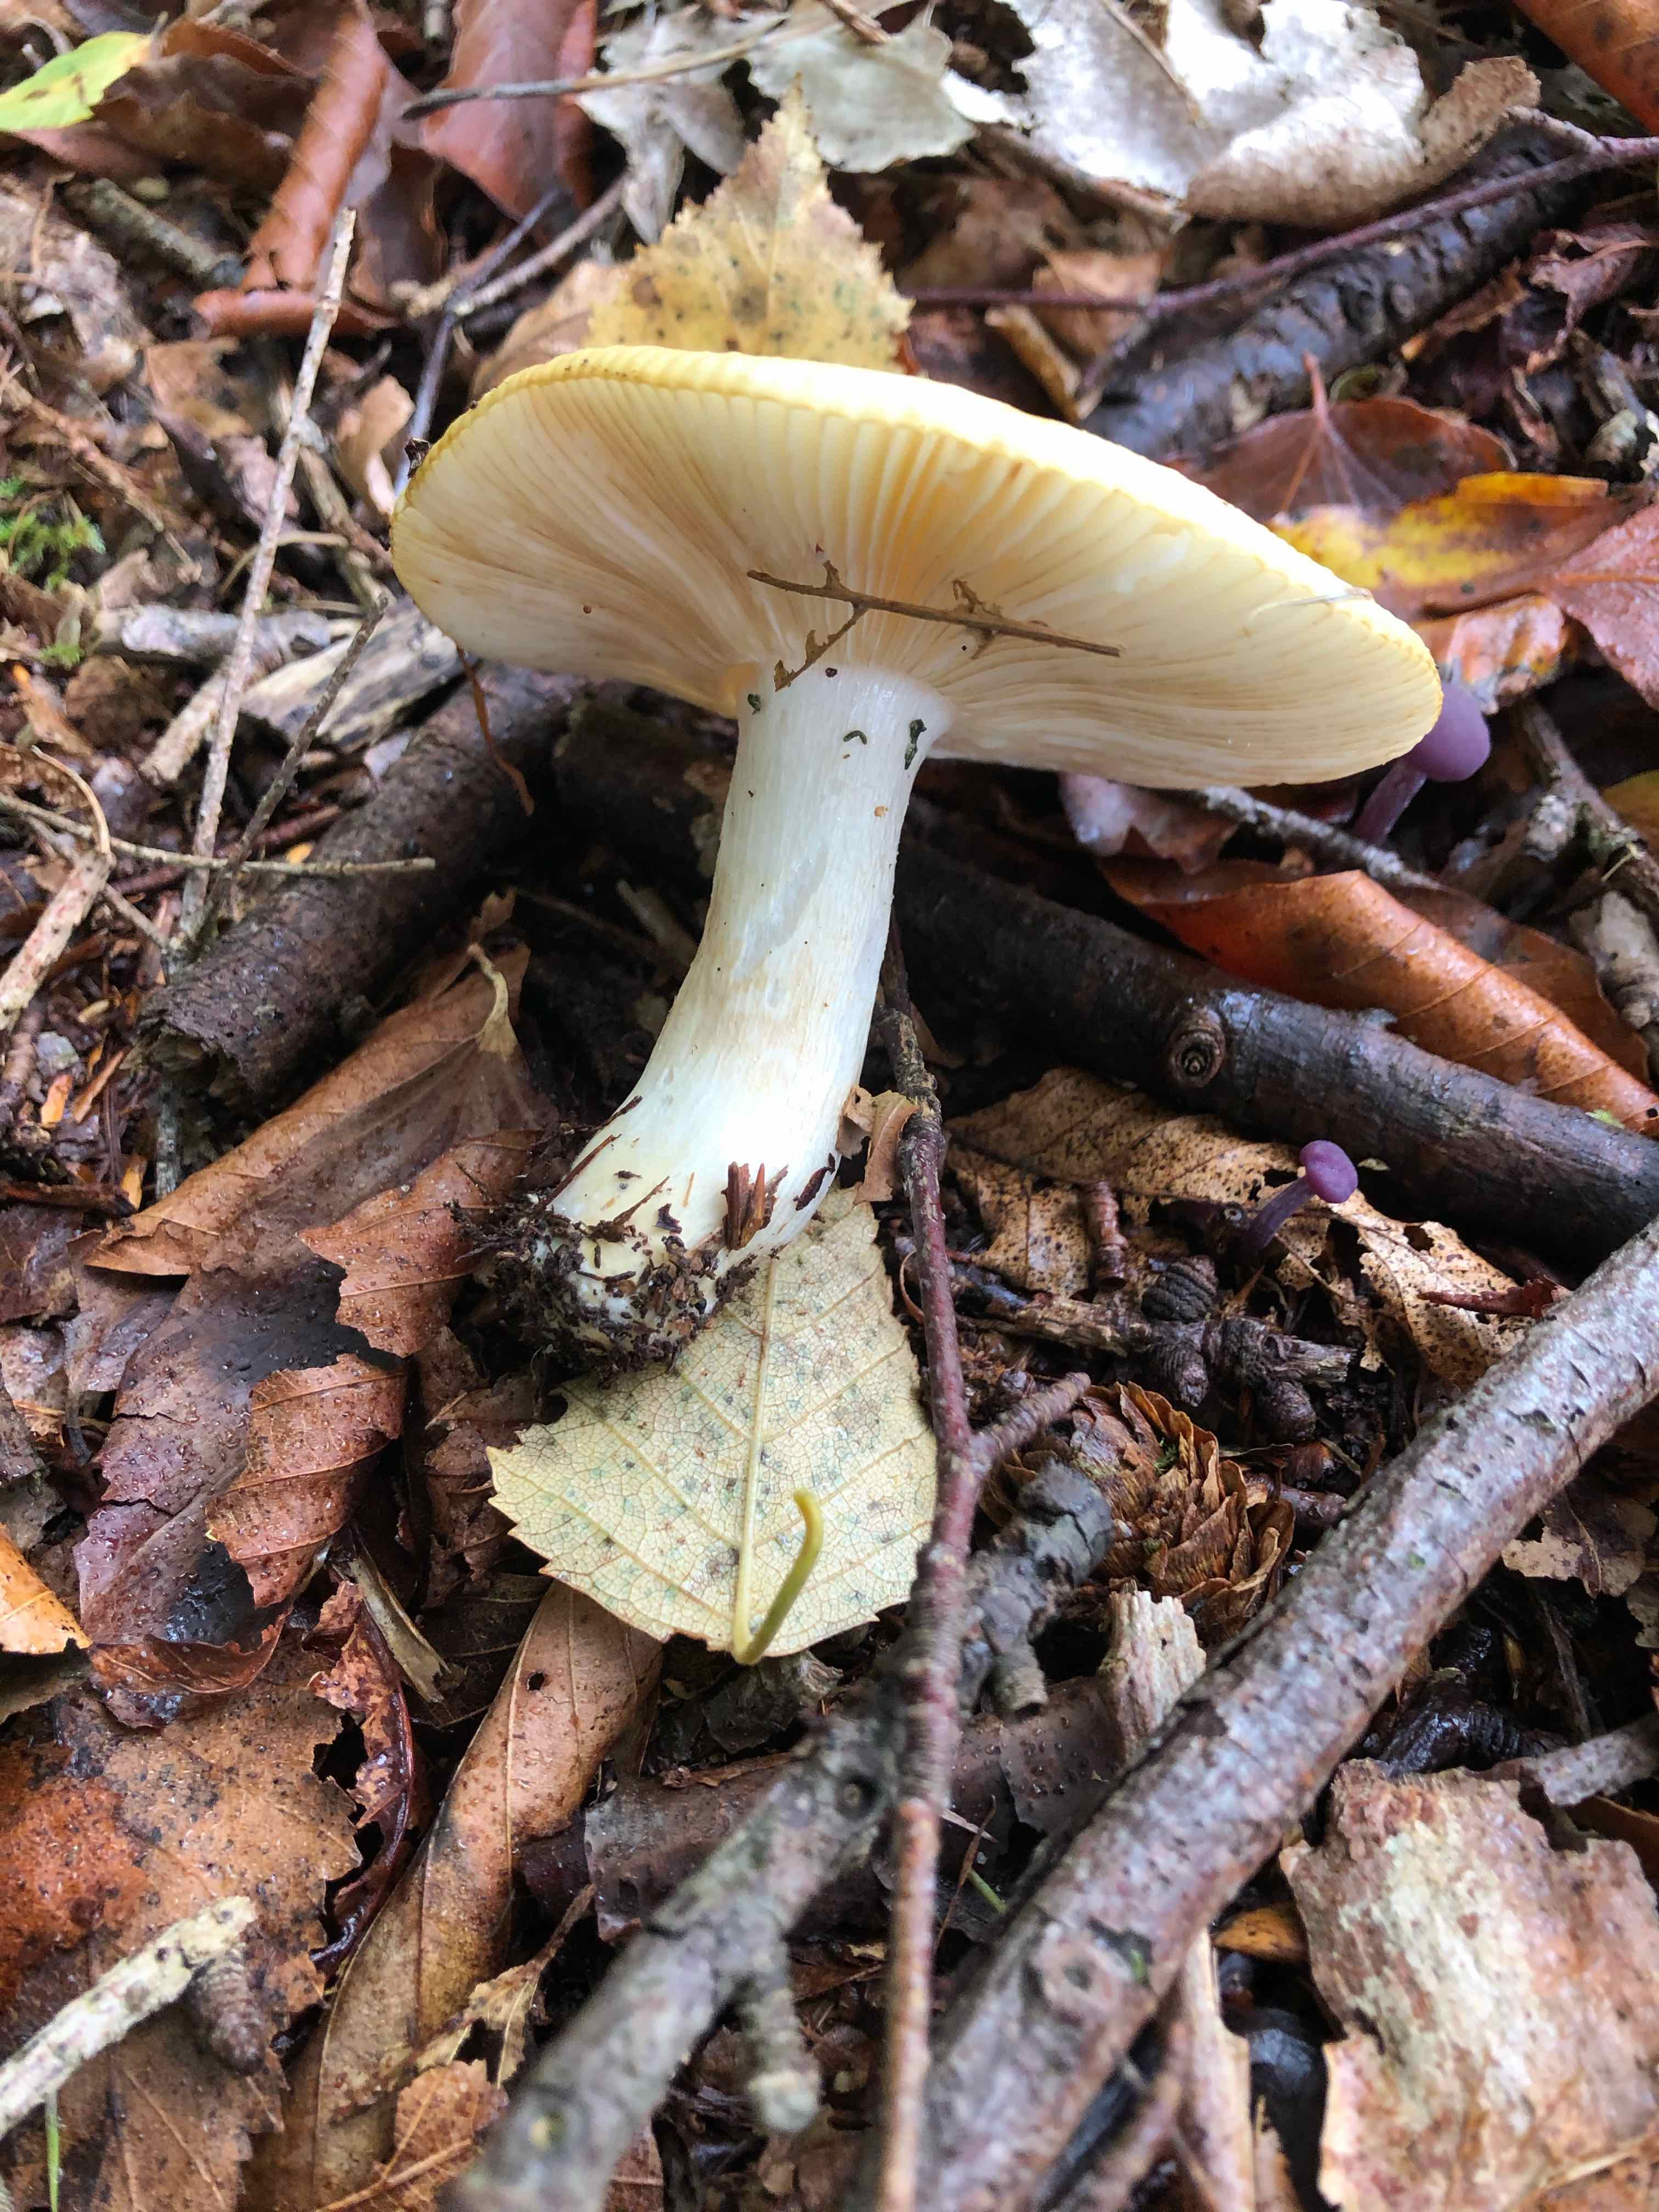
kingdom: Fungi
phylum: Basidiomycota
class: Agaricomycetes
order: Russulales
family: Russulaceae
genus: Russula
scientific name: Russula ochroleuca
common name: okkergul skørhat
